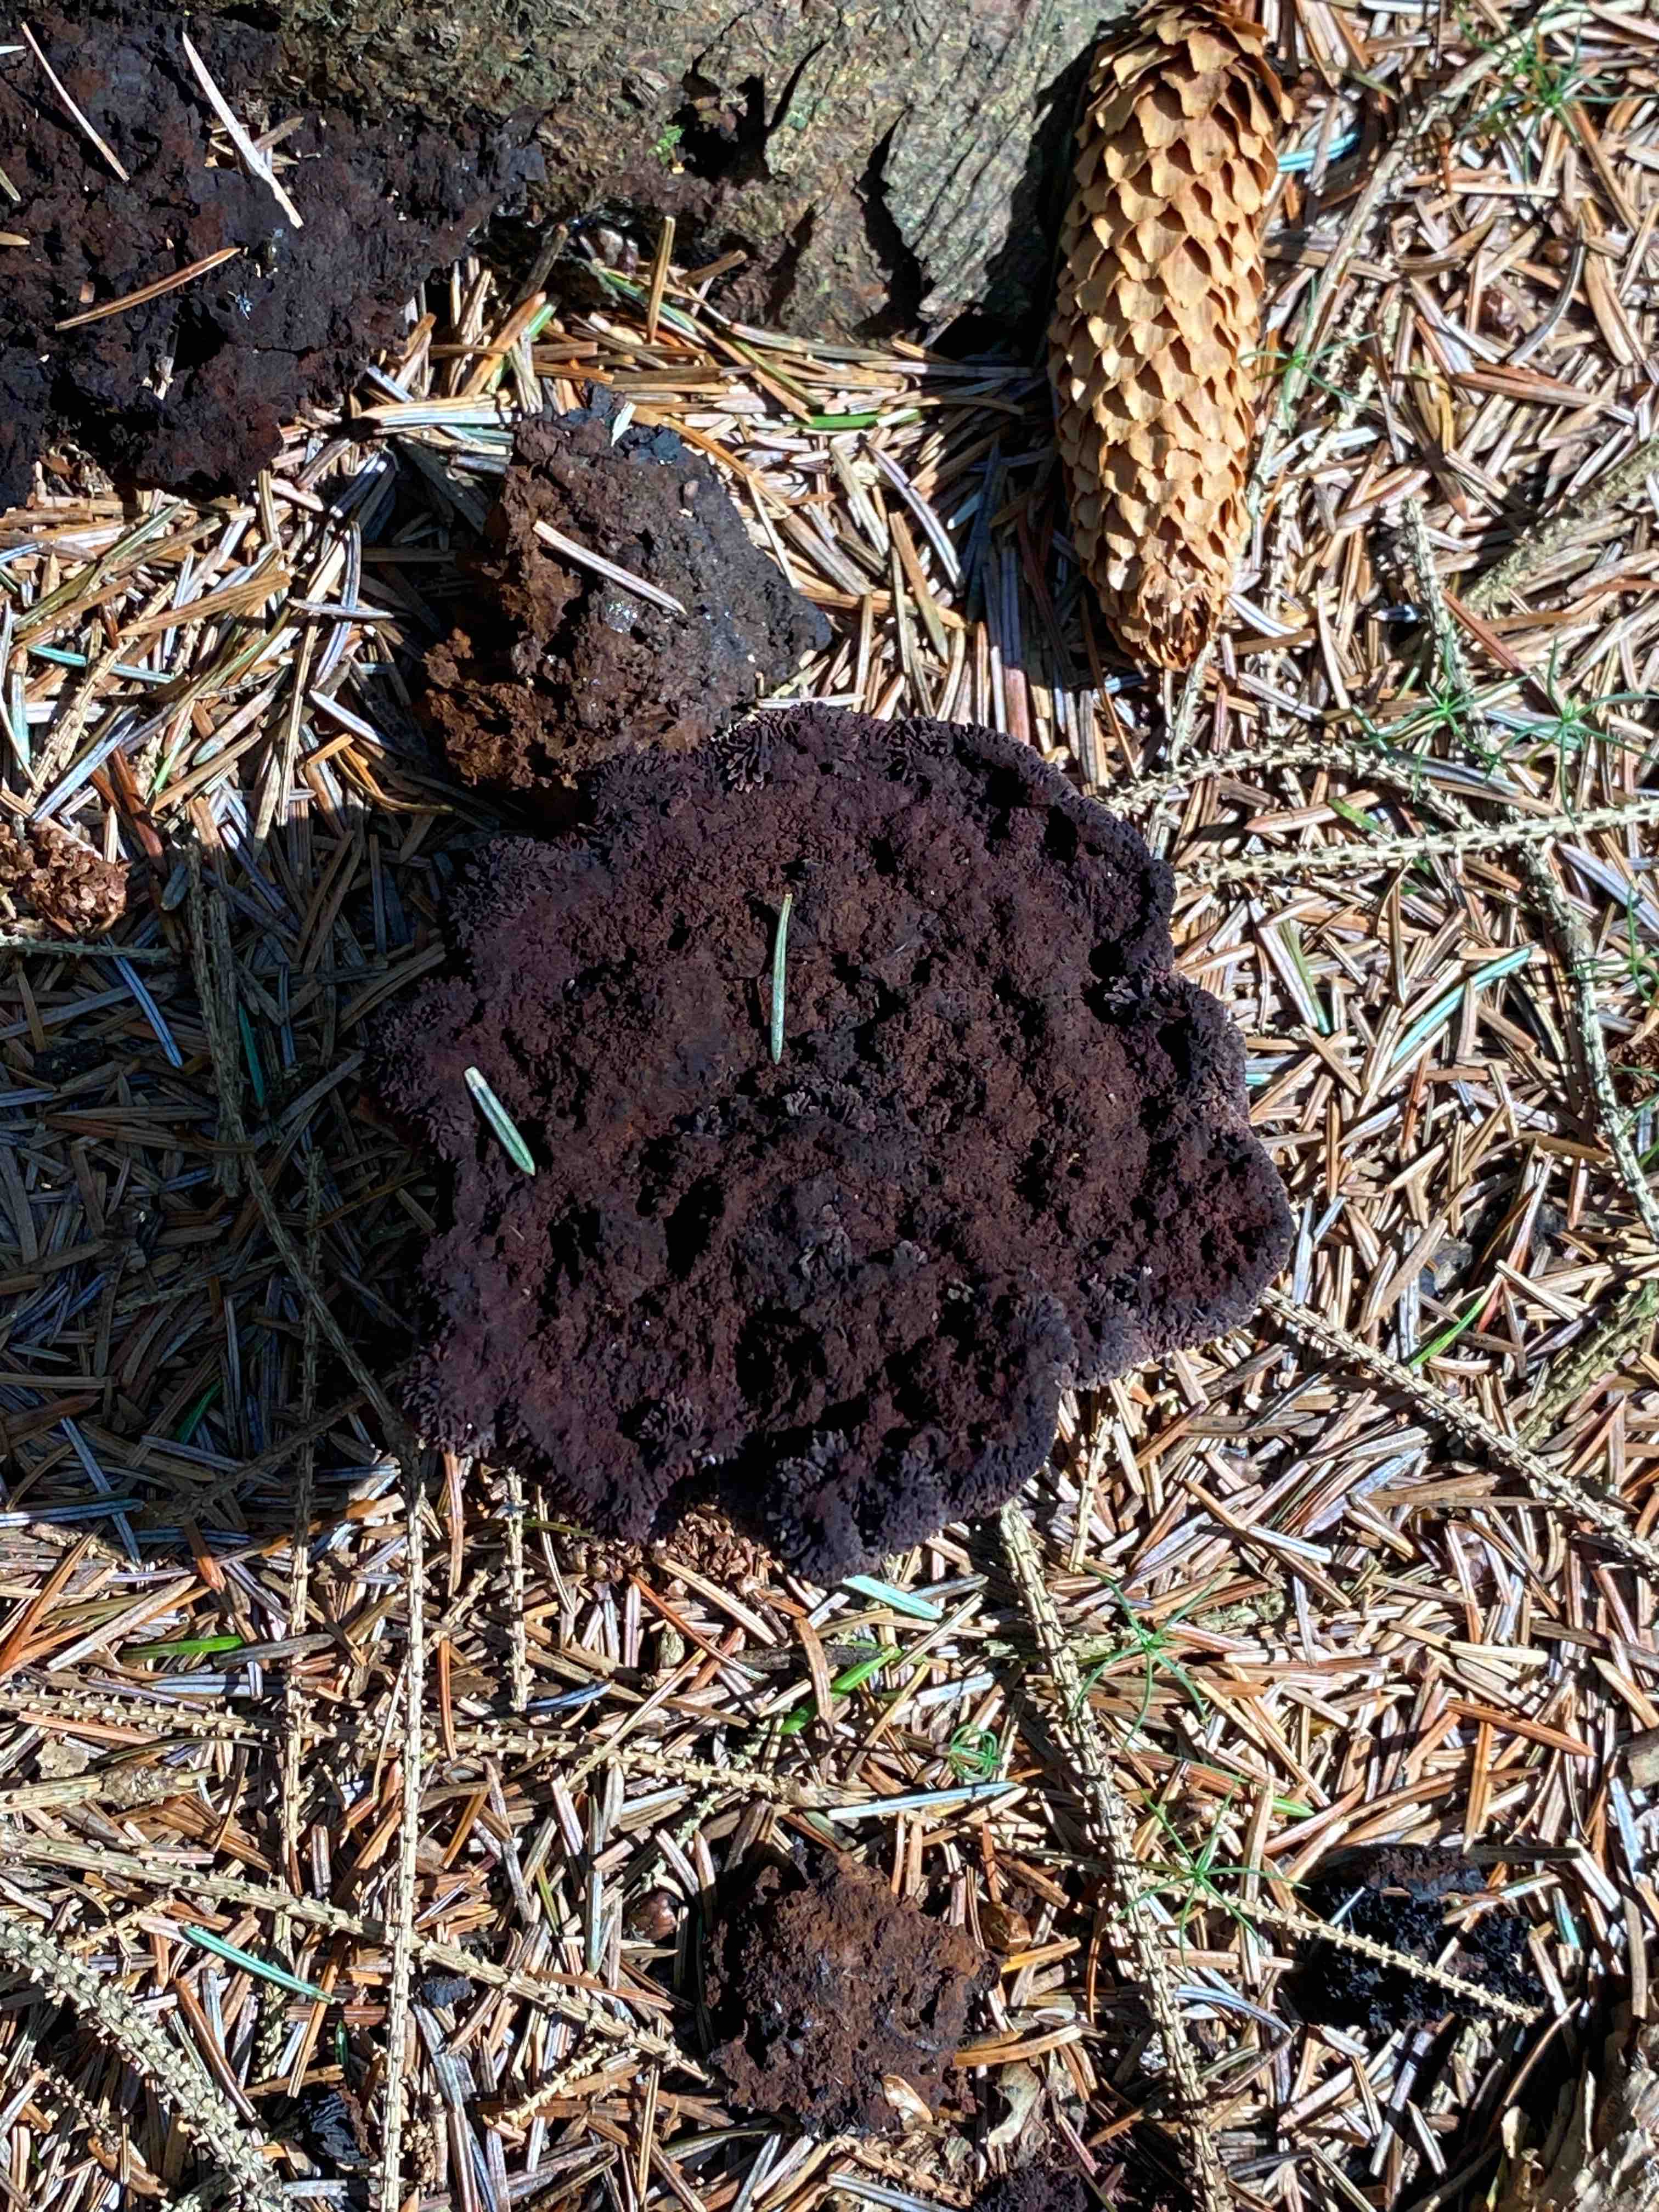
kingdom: Fungi
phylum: Basidiomycota
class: Agaricomycetes
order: Polyporales
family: Laetiporaceae
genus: Phaeolus
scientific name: Phaeolus schweinitzii
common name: brunporesvamp
